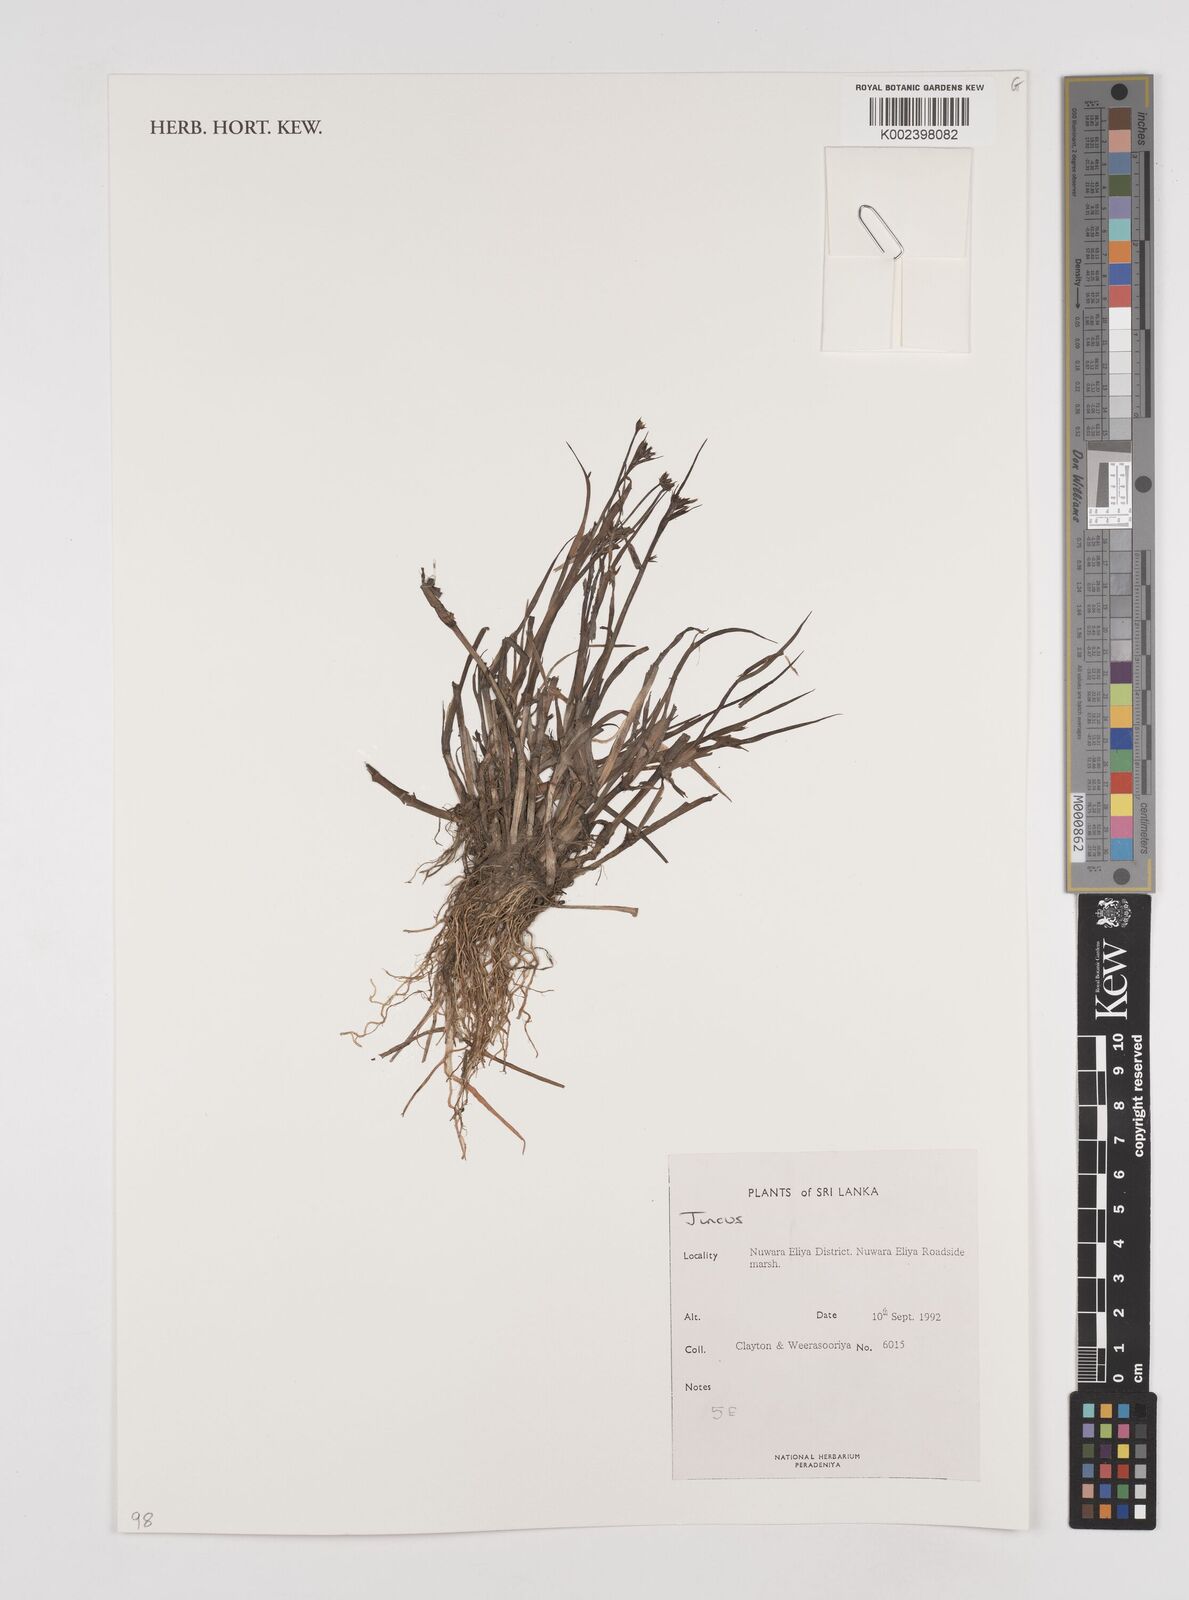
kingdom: Plantae
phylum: Tracheophyta
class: Liliopsida
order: Poales
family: Juncaceae
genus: Juncus
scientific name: Juncus
